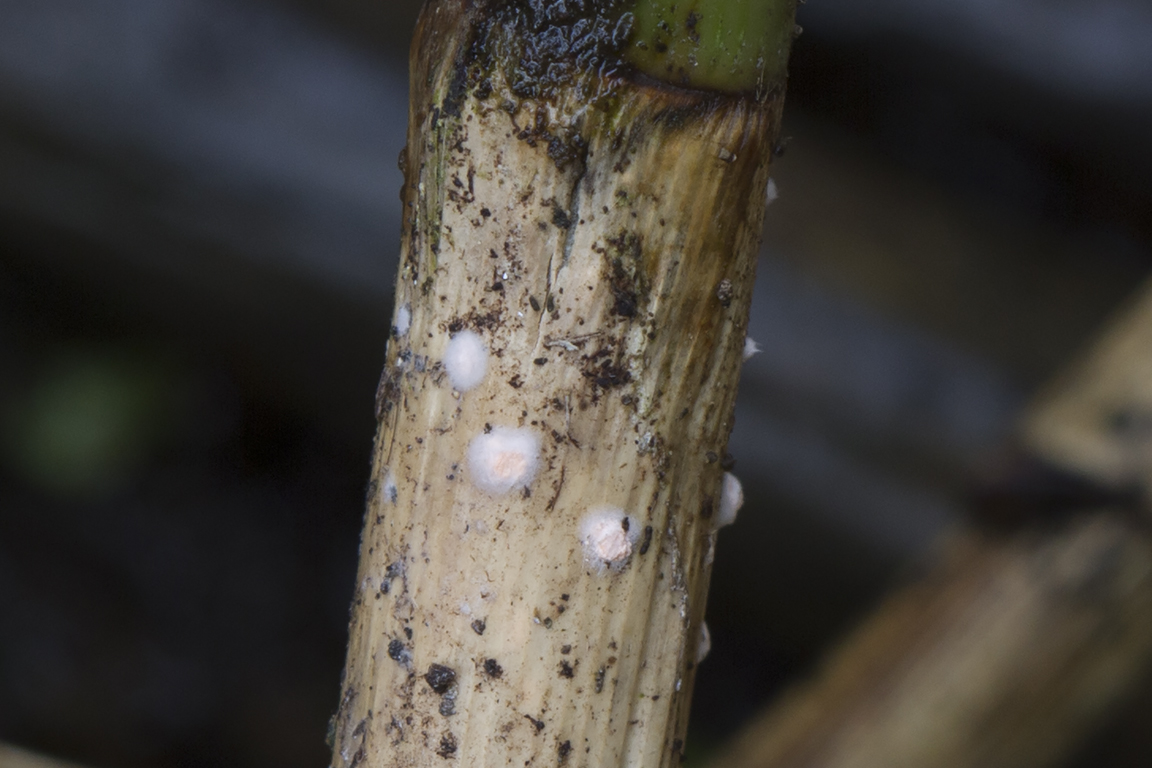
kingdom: Fungi
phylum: Ascomycota
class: Sordariomycetes
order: Hypocreales
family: Nectriaceae
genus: Volutella
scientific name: Volutella arundinis
